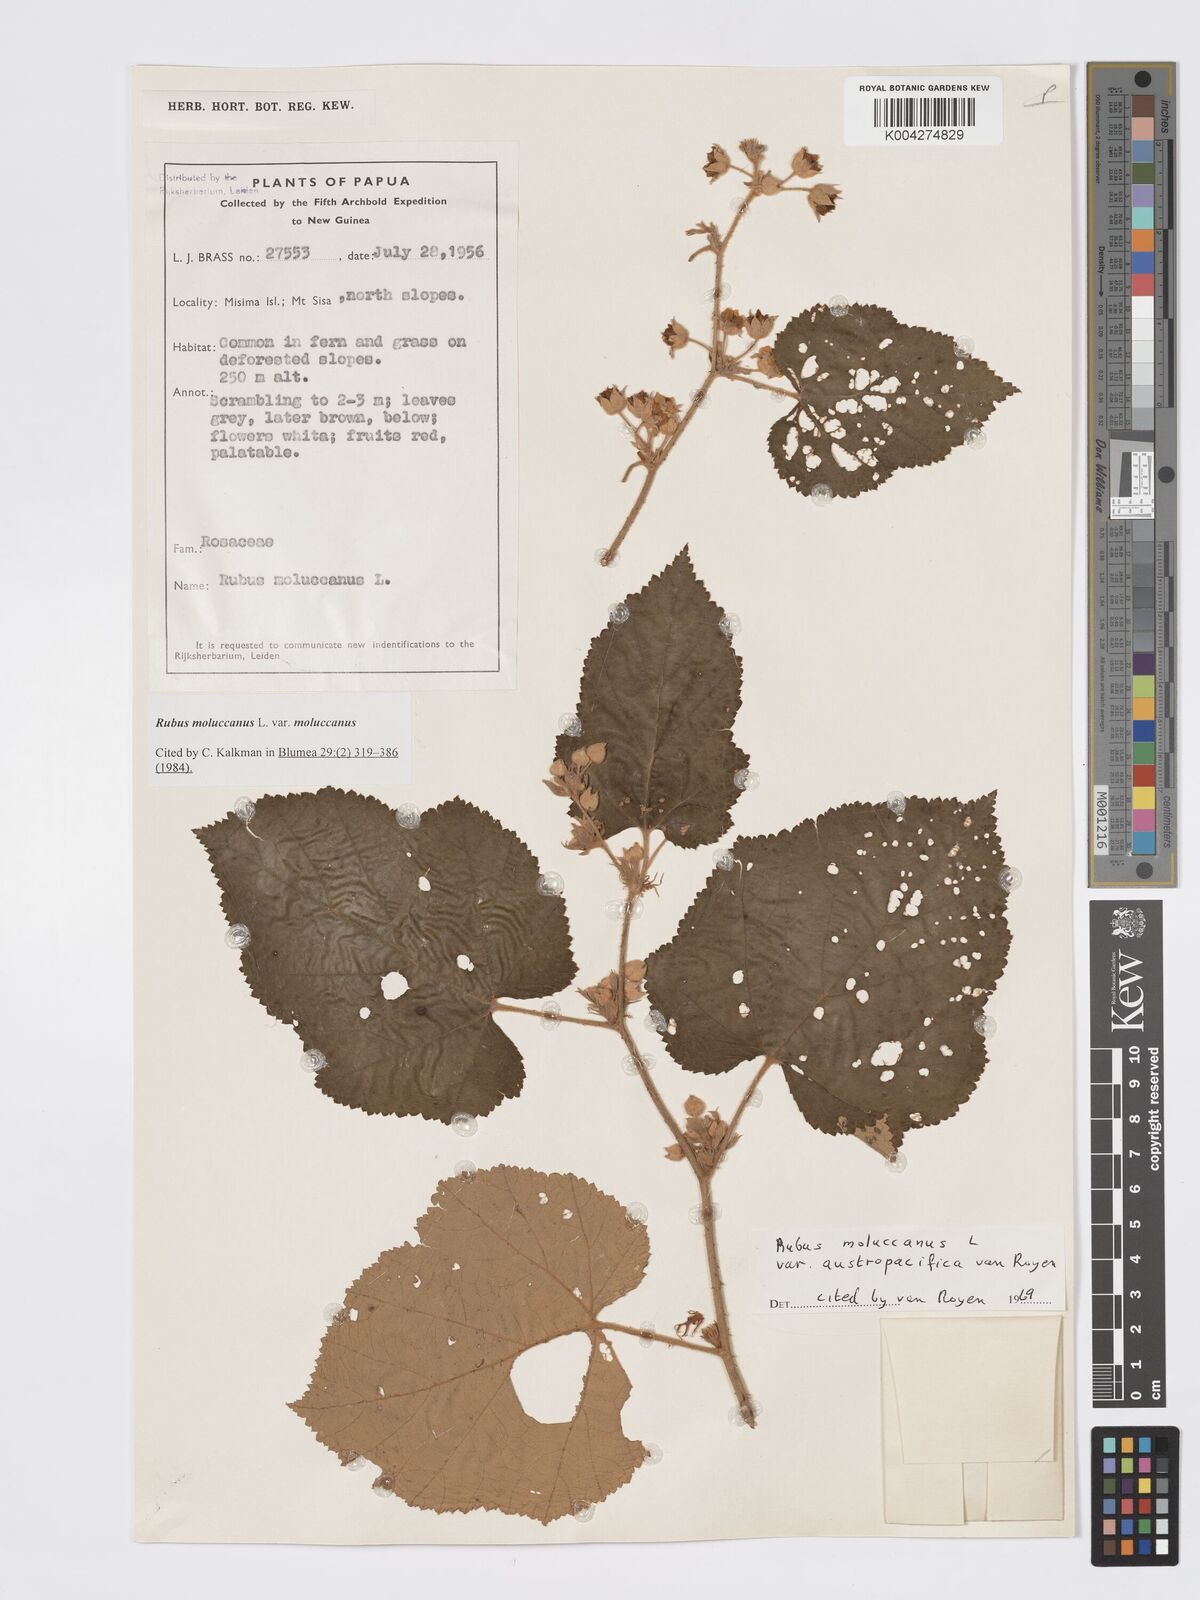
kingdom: Plantae
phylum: Tracheophyta
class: Magnoliopsida
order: Rosales
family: Rosaceae
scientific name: Rosaceae
